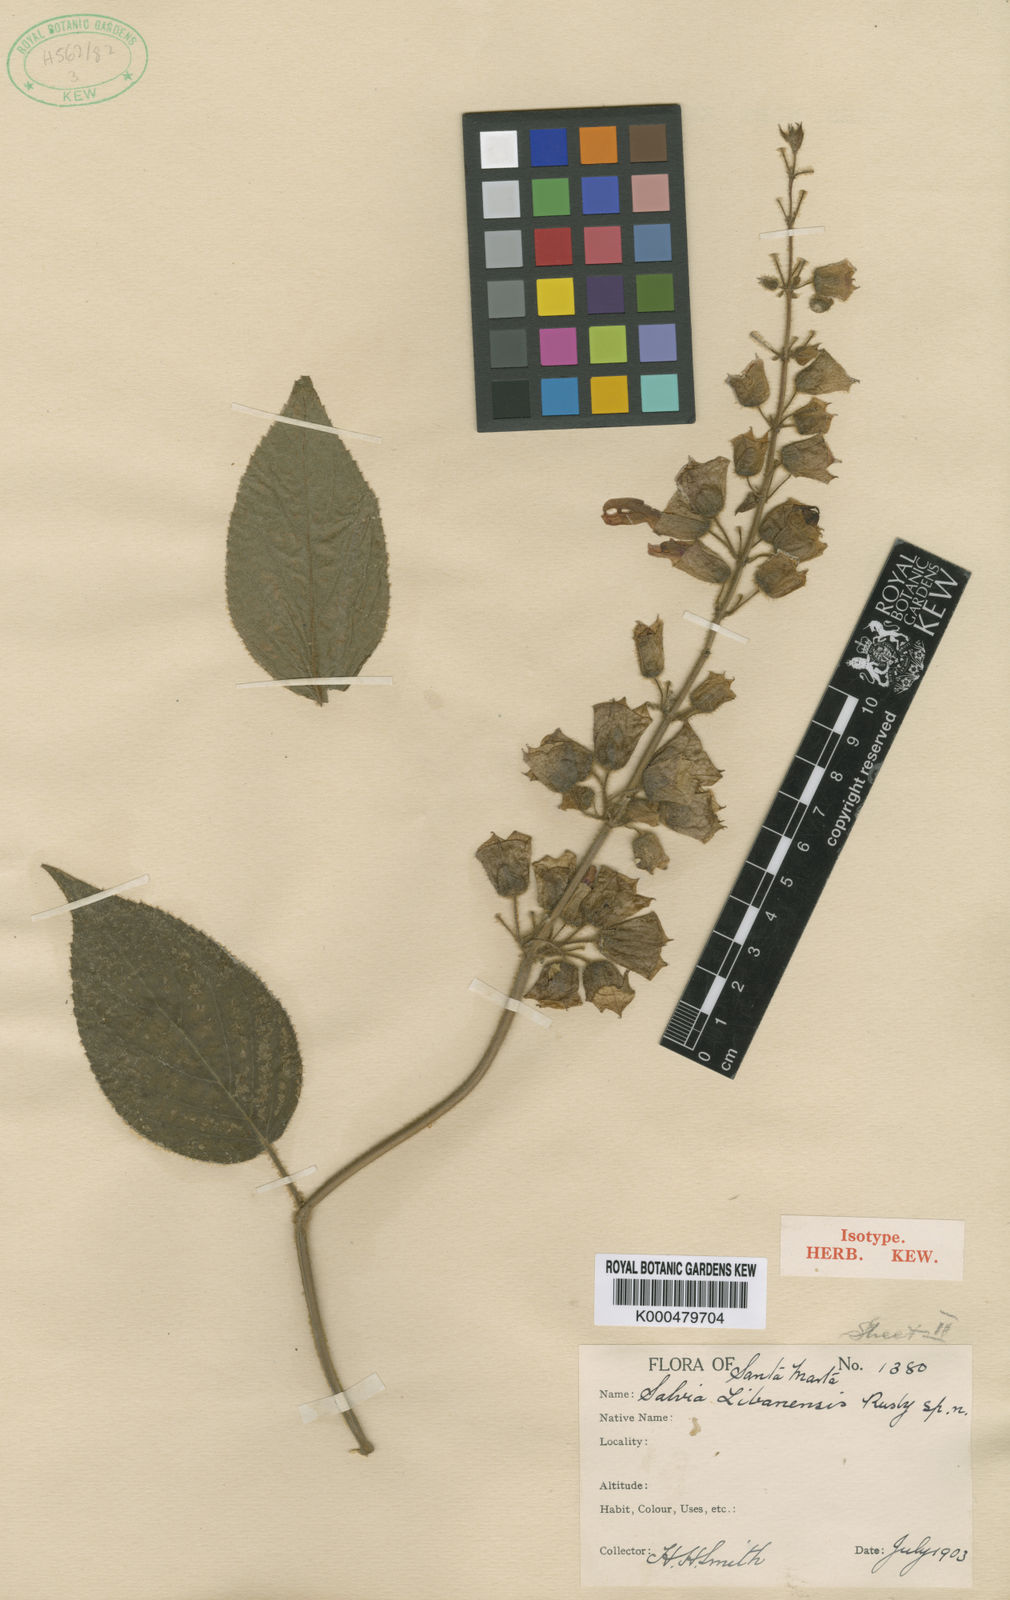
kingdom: Plantae
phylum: Tracheophyta
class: Magnoliopsida
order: Lamiales
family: Lamiaceae
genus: Salvia
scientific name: Salvia libanensis
